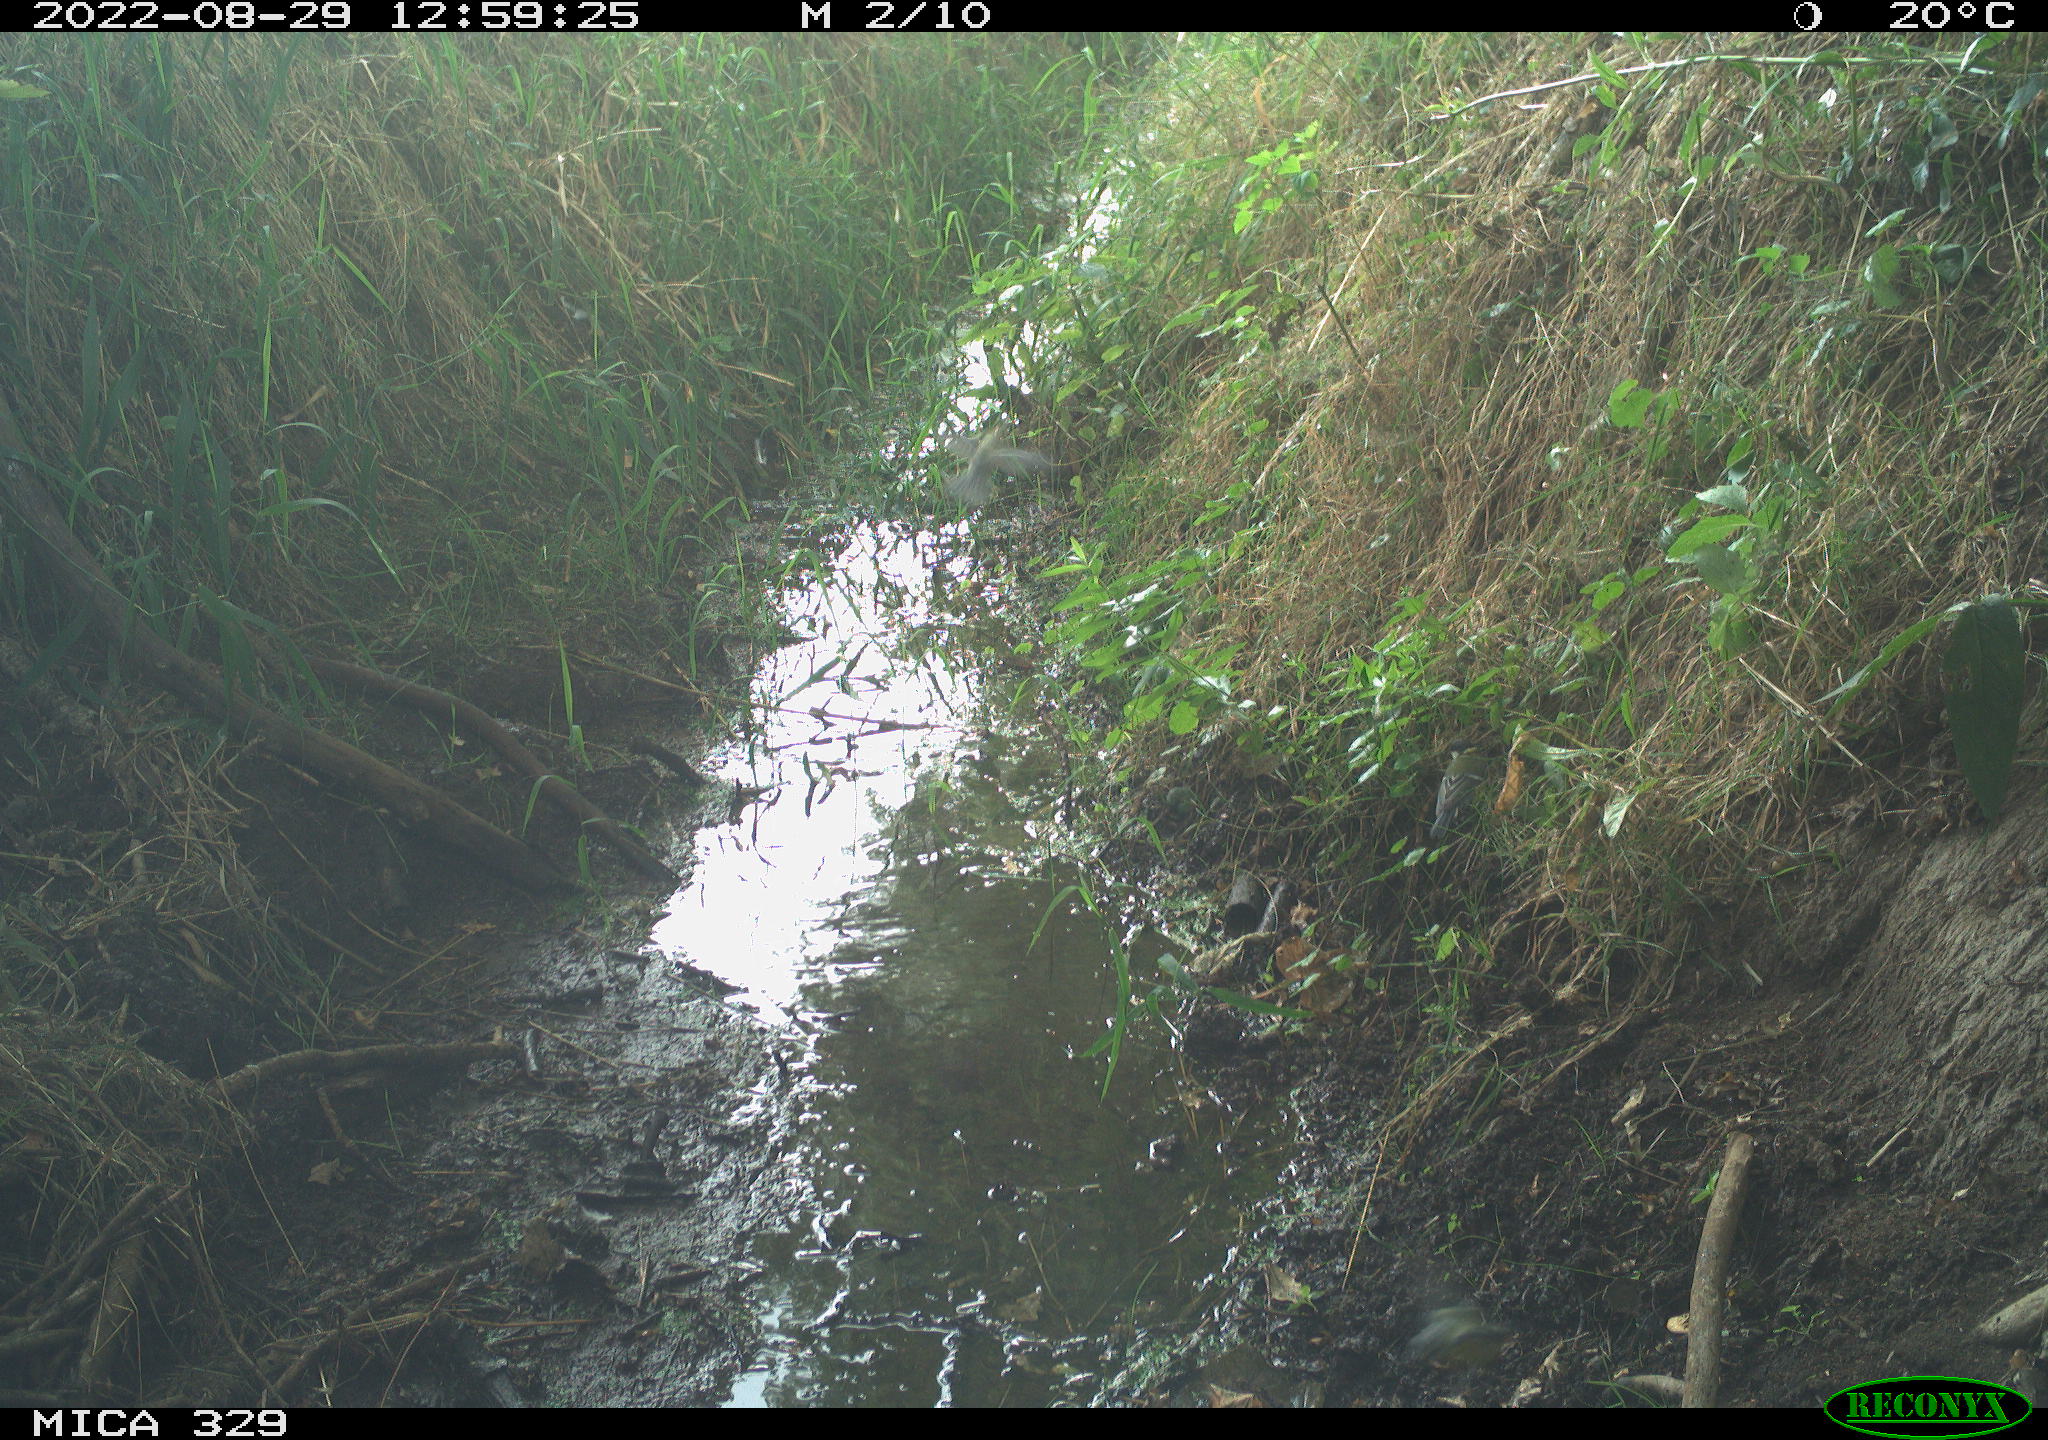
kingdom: Animalia
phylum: Chordata
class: Aves
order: Passeriformes
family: Paridae
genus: Parus
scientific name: Parus major
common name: Great tit
